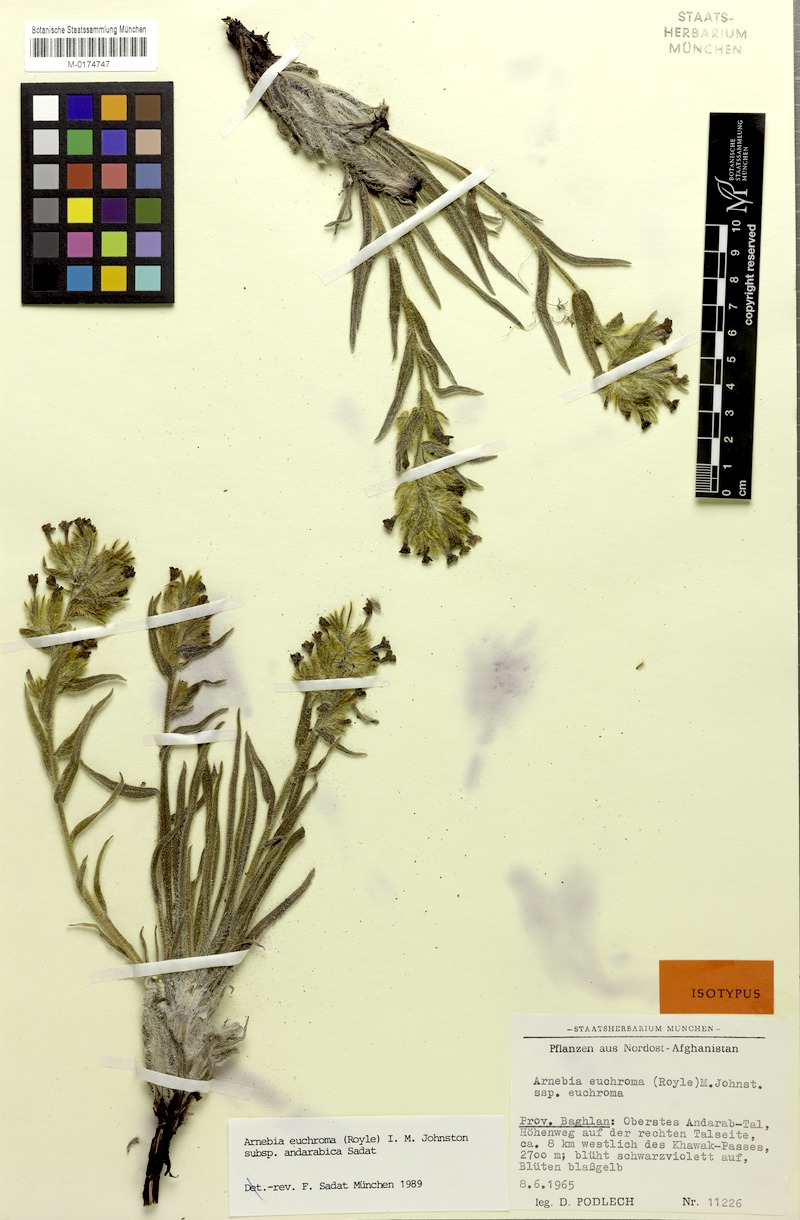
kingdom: Plantae
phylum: Tracheophyta
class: Magnoliopsida
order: Boraginales
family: Boraginaceae
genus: Arnebia
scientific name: Arnebia euchroma
